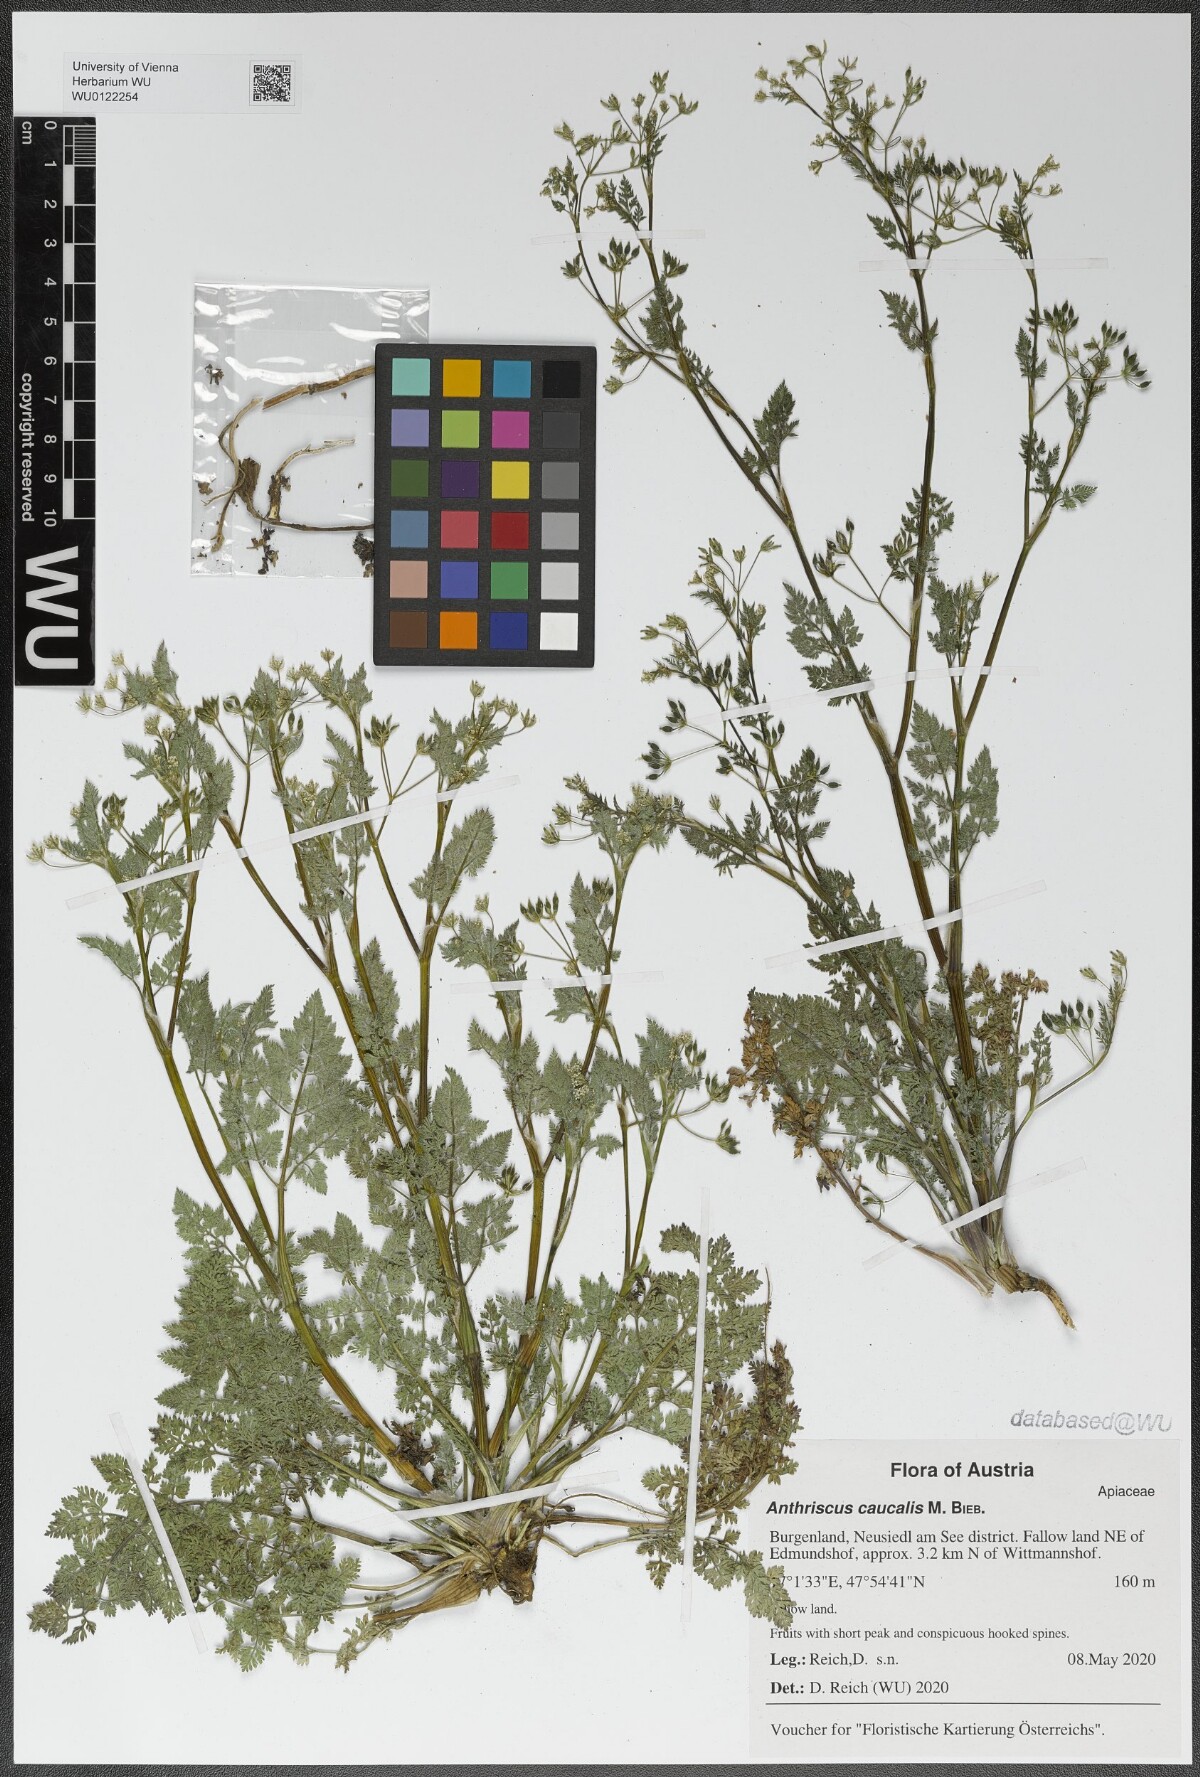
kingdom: Plantae
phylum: Tracheophyta
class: Magnoliopsida
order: Apiales
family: Apiaceae
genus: Anthriscus
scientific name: Anthriscus caucalis
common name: Bur chervil
